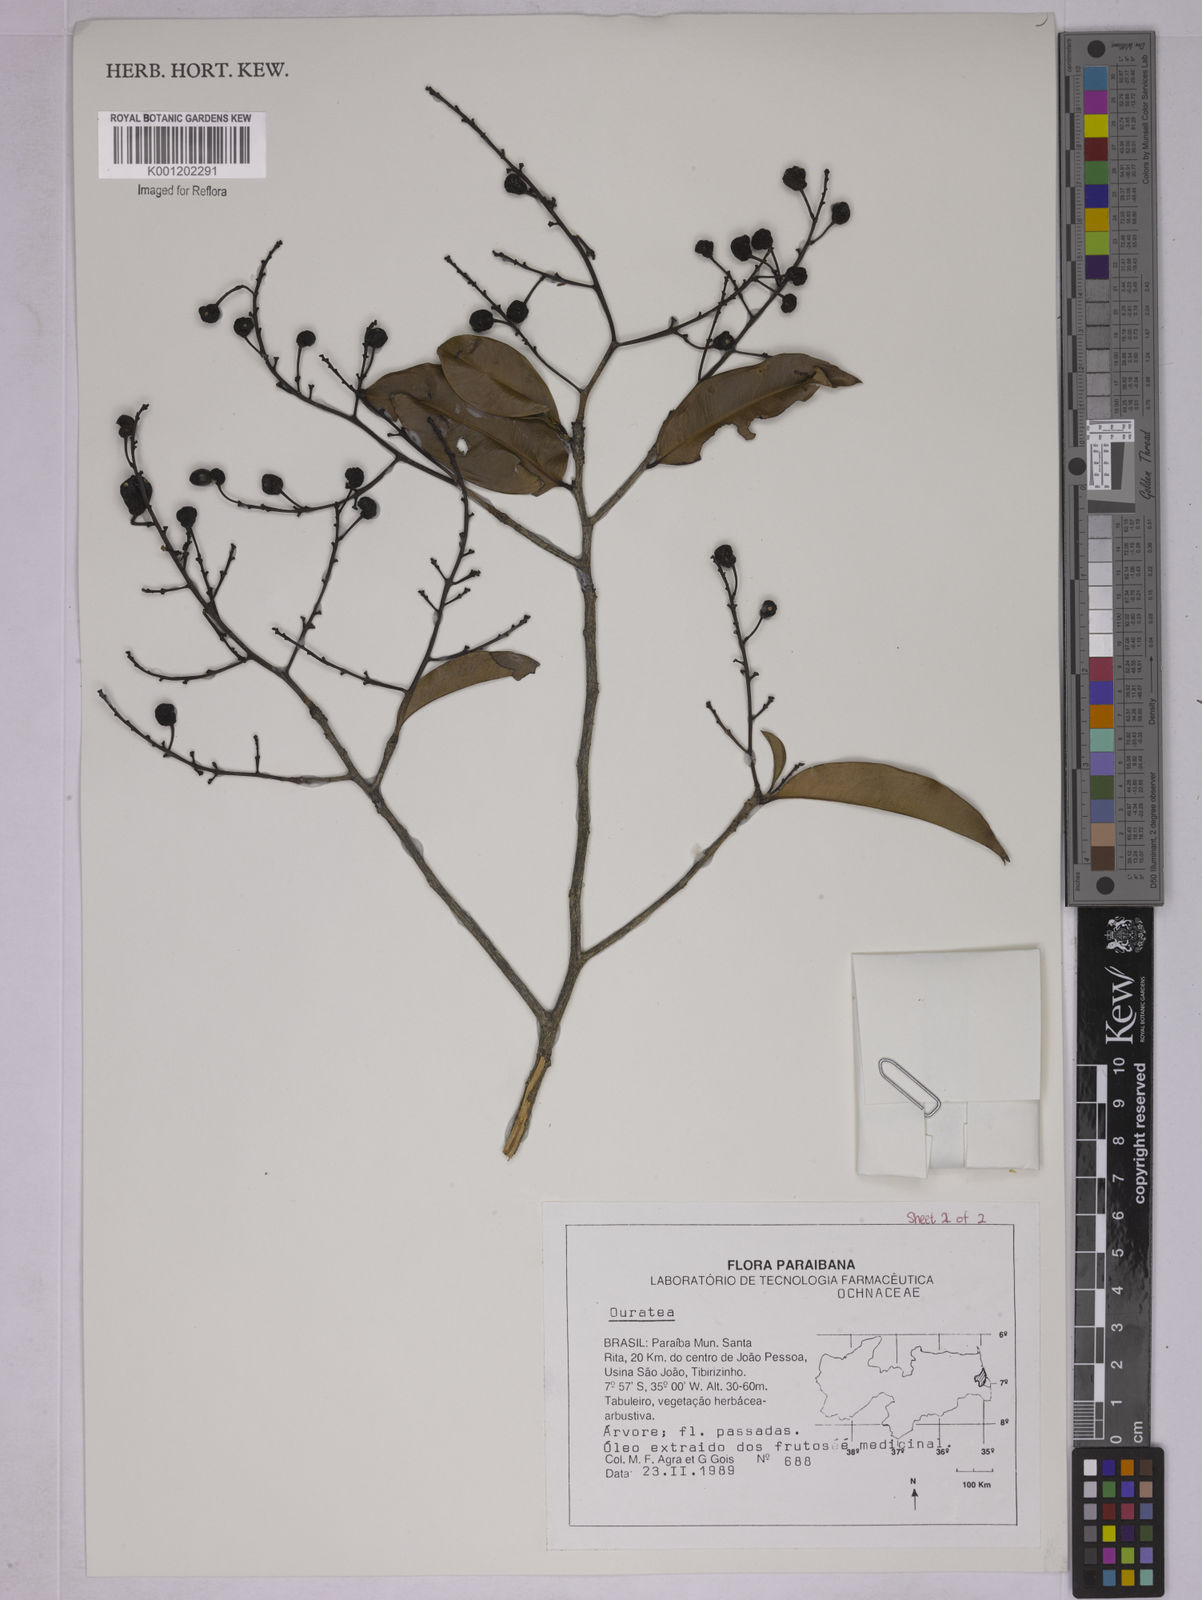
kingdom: Plantae
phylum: Tracheophyta
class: Magnoliopsida
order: Malpighiales
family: Ochnaceae
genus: Ouratea
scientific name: Ouratea
